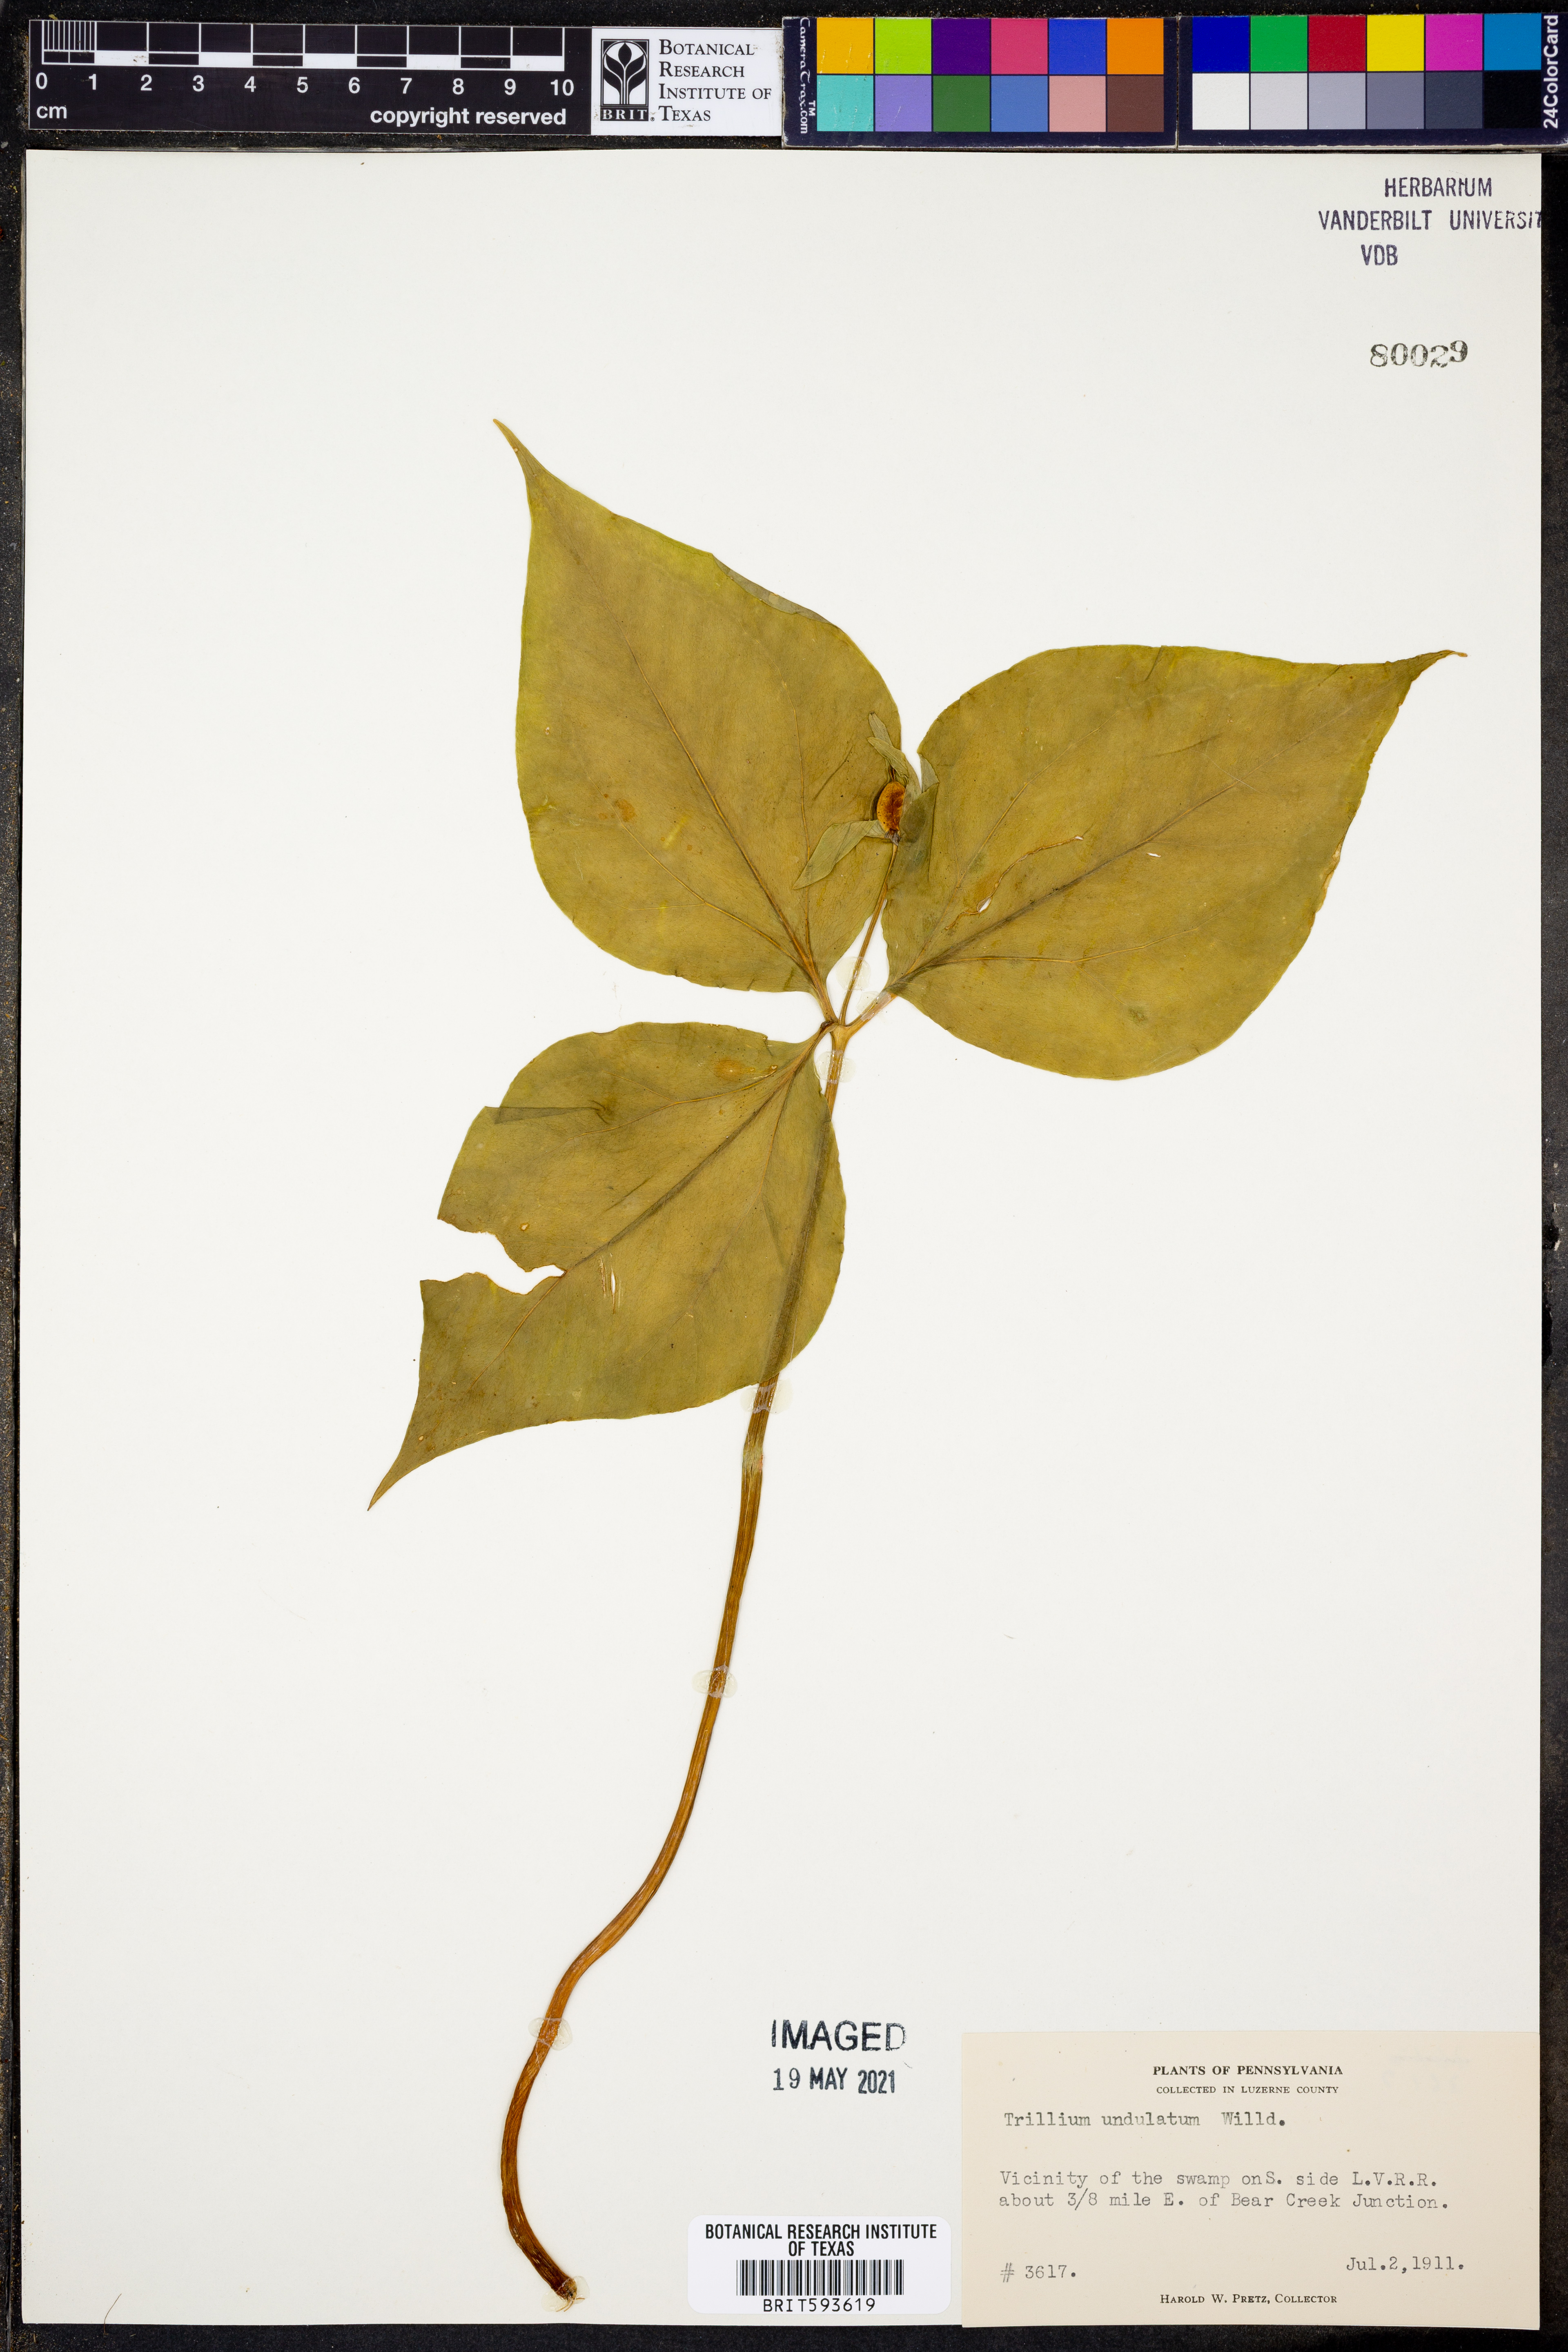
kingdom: Plantae
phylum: Tracheophyta
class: Liliopsida
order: Liliales
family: Melanthiaceae
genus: Trillium
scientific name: Trillium undulatum
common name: Paint trillium
